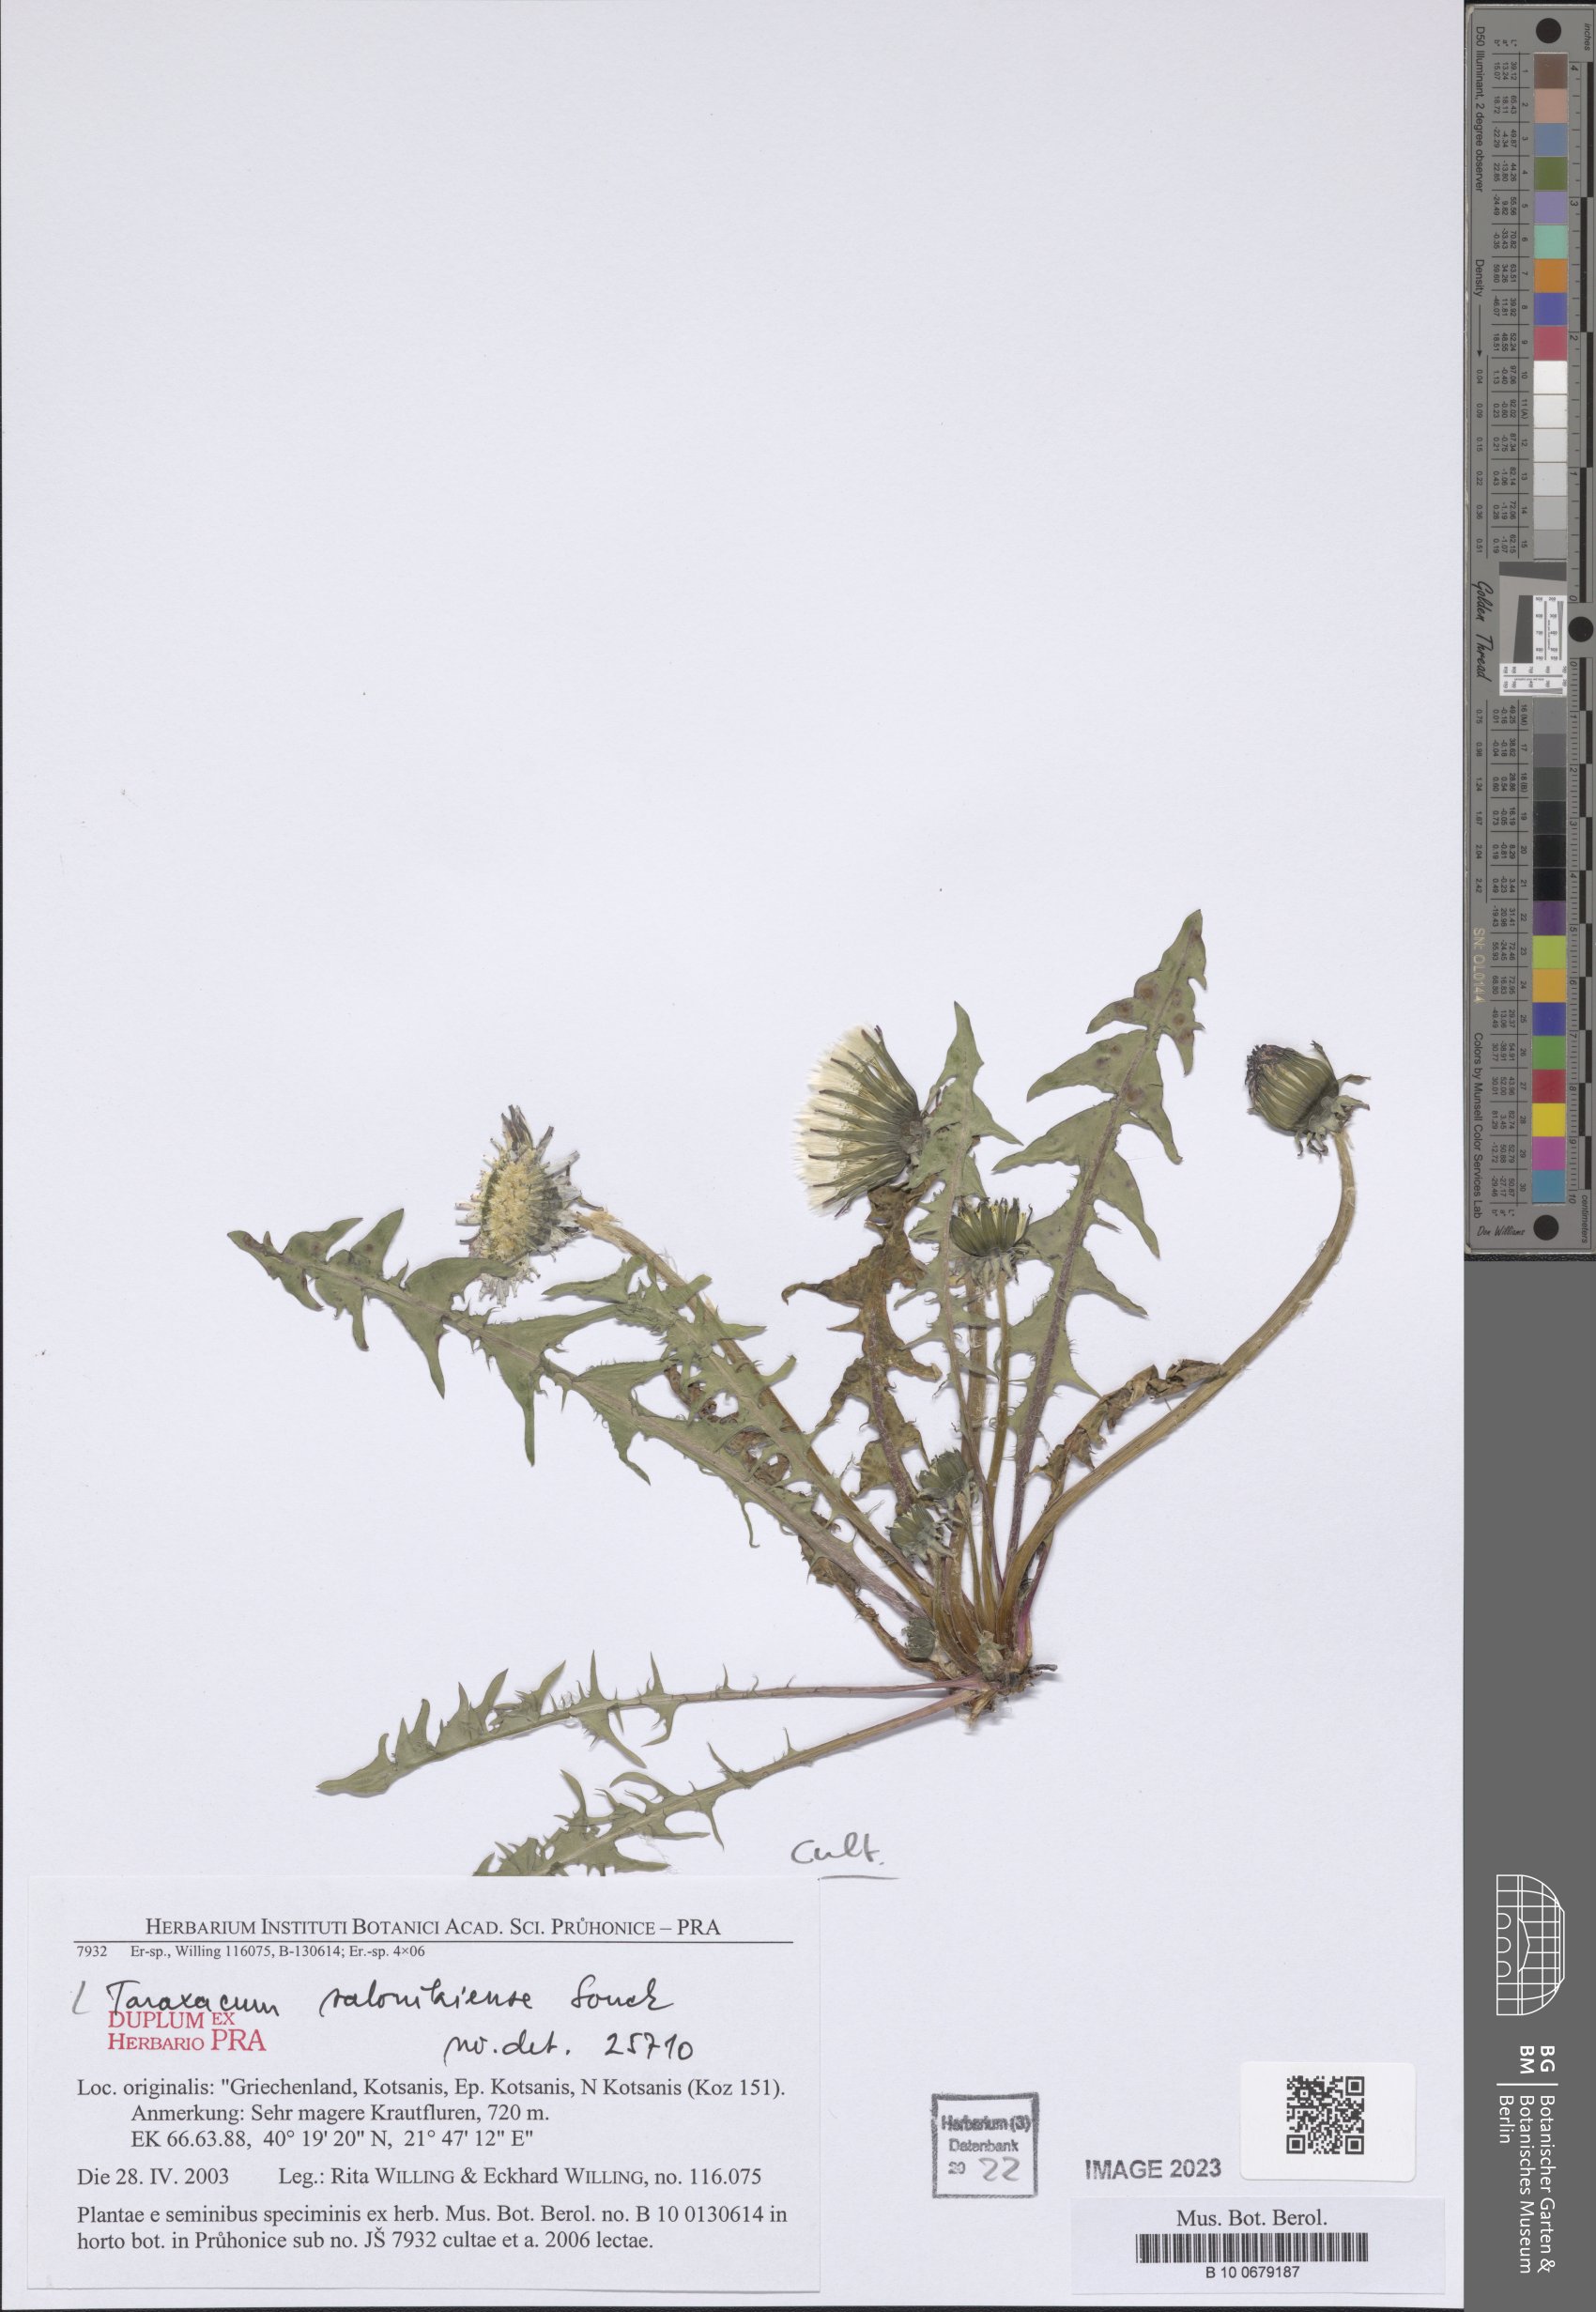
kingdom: Plantae
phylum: Tracheophyta
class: Magnoliopsida
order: Asterales
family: Asteraceae
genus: Taraxacum
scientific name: Taraxacum salonikiense
